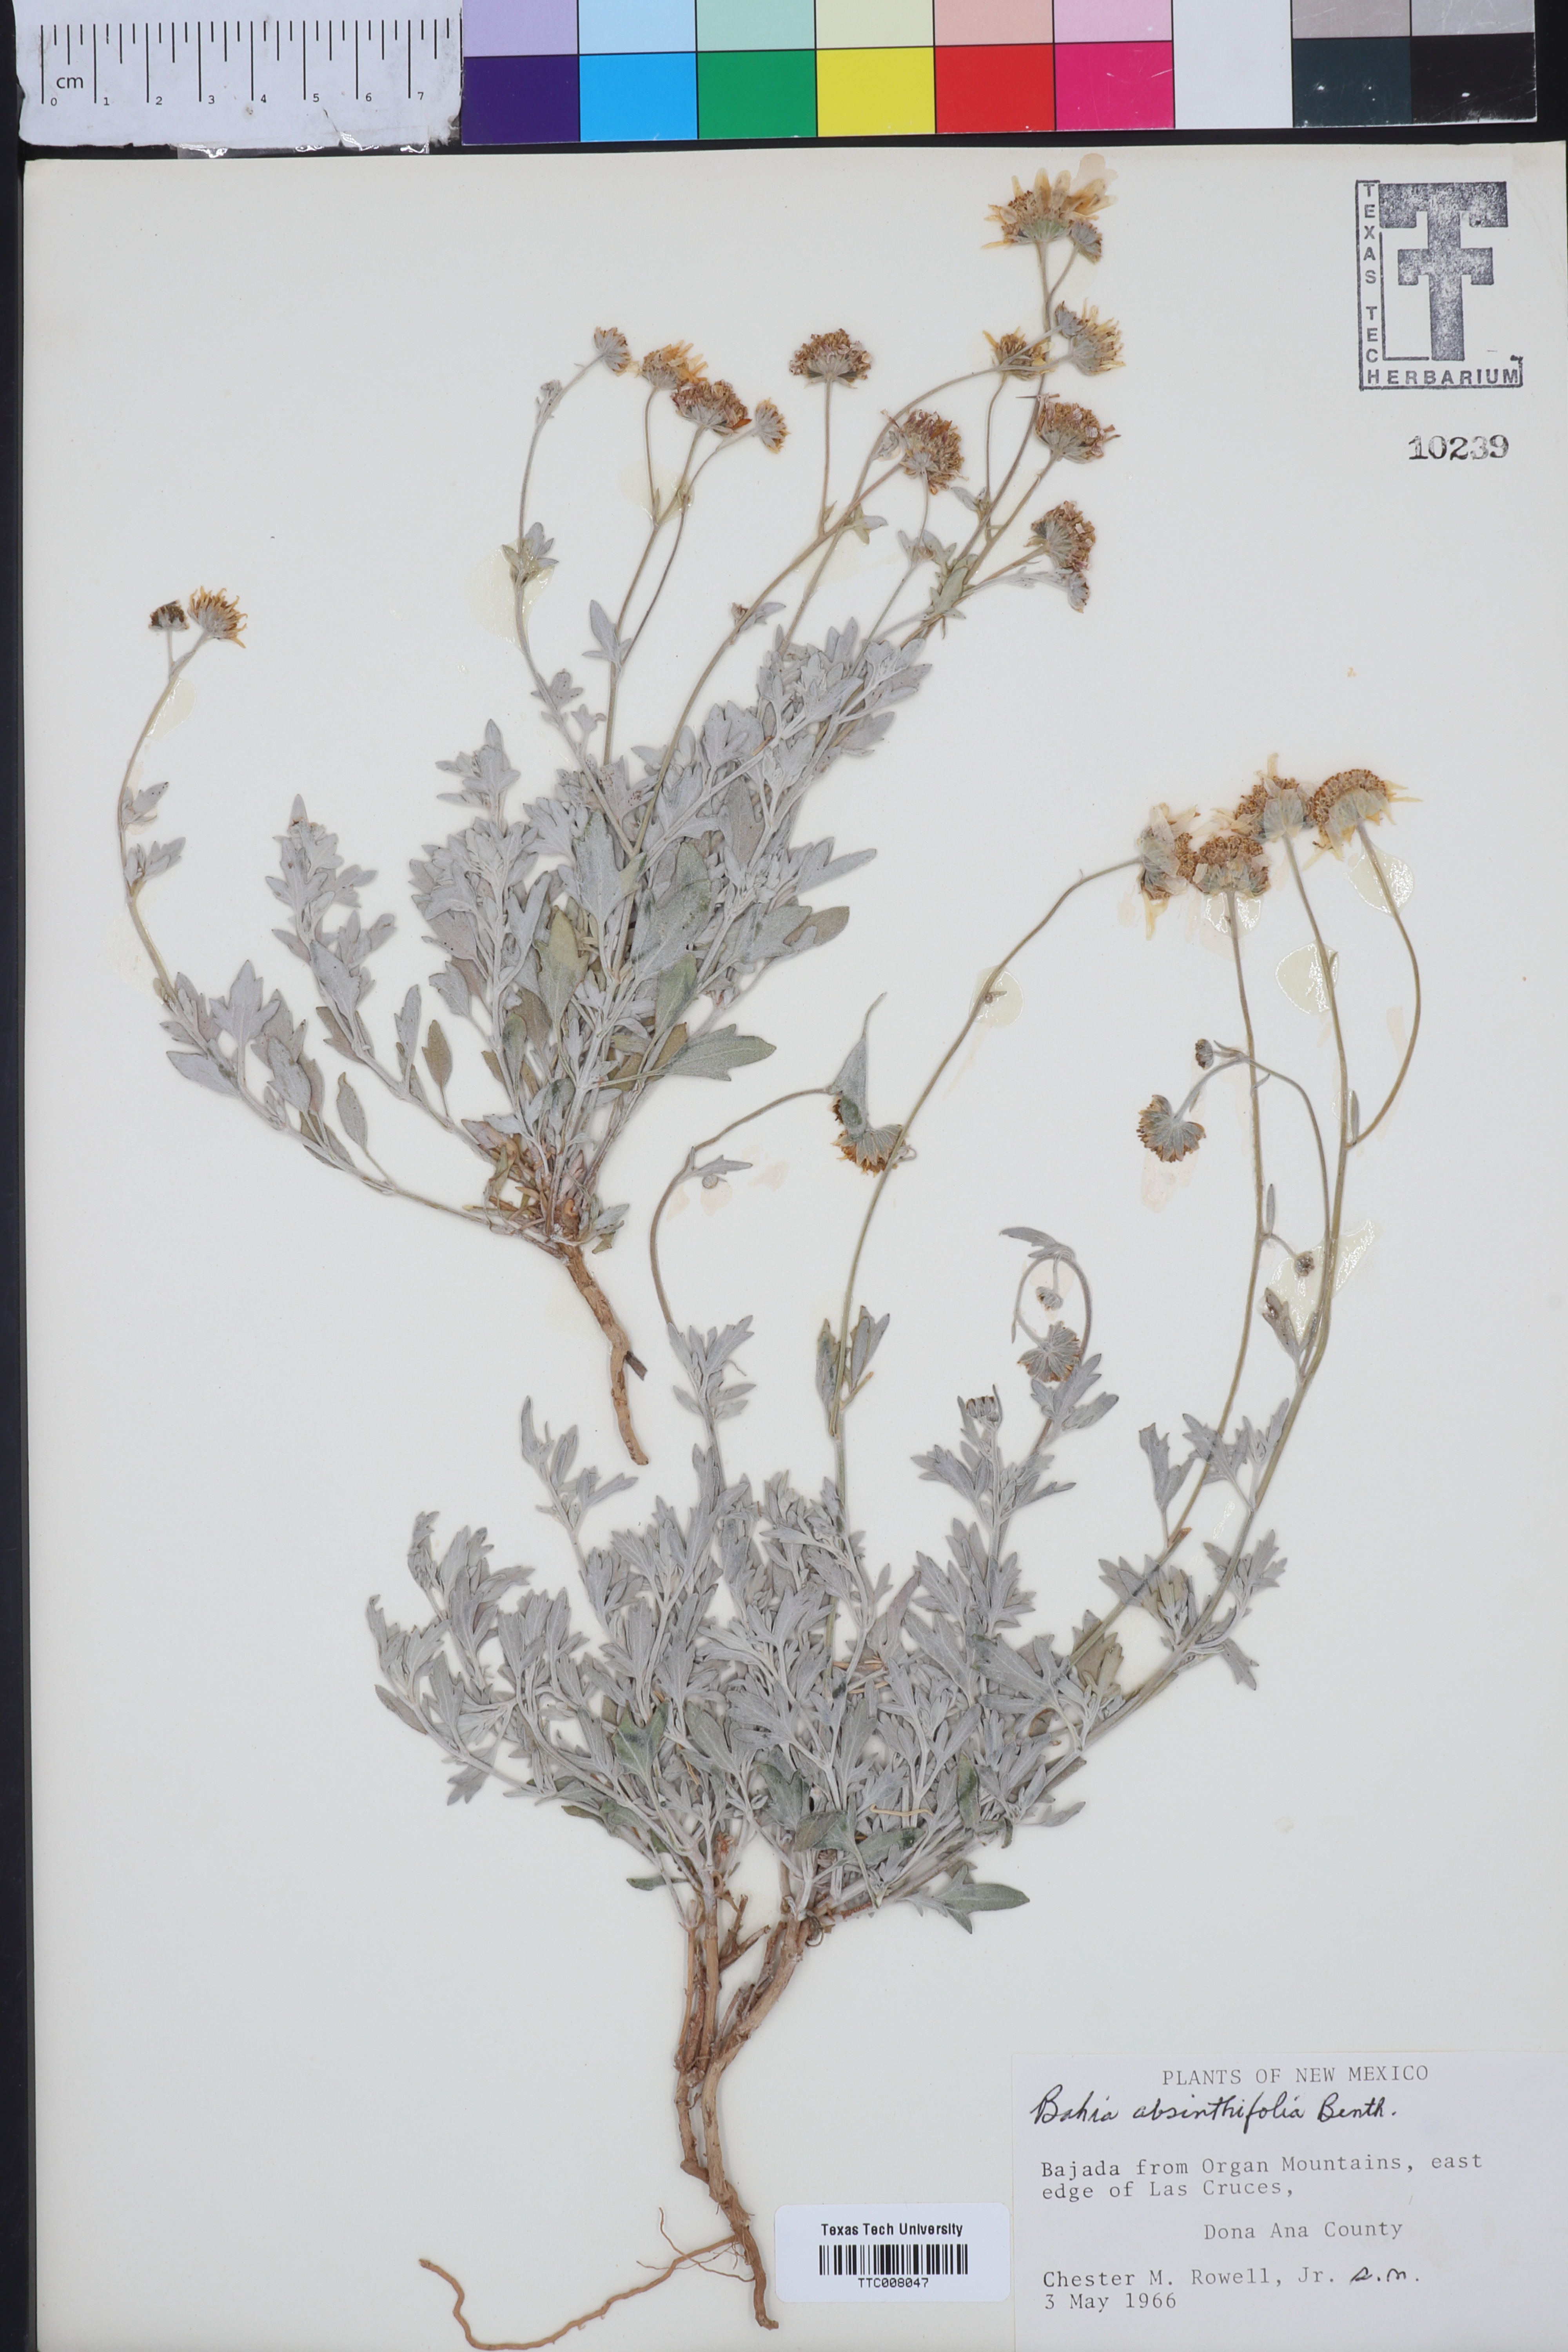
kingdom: Plantae
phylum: Tracheophyta
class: Magnoliopsida
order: Asterales
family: Asteraceae
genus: Picradeniopsis
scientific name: Picradeniopsis absinthifolia
